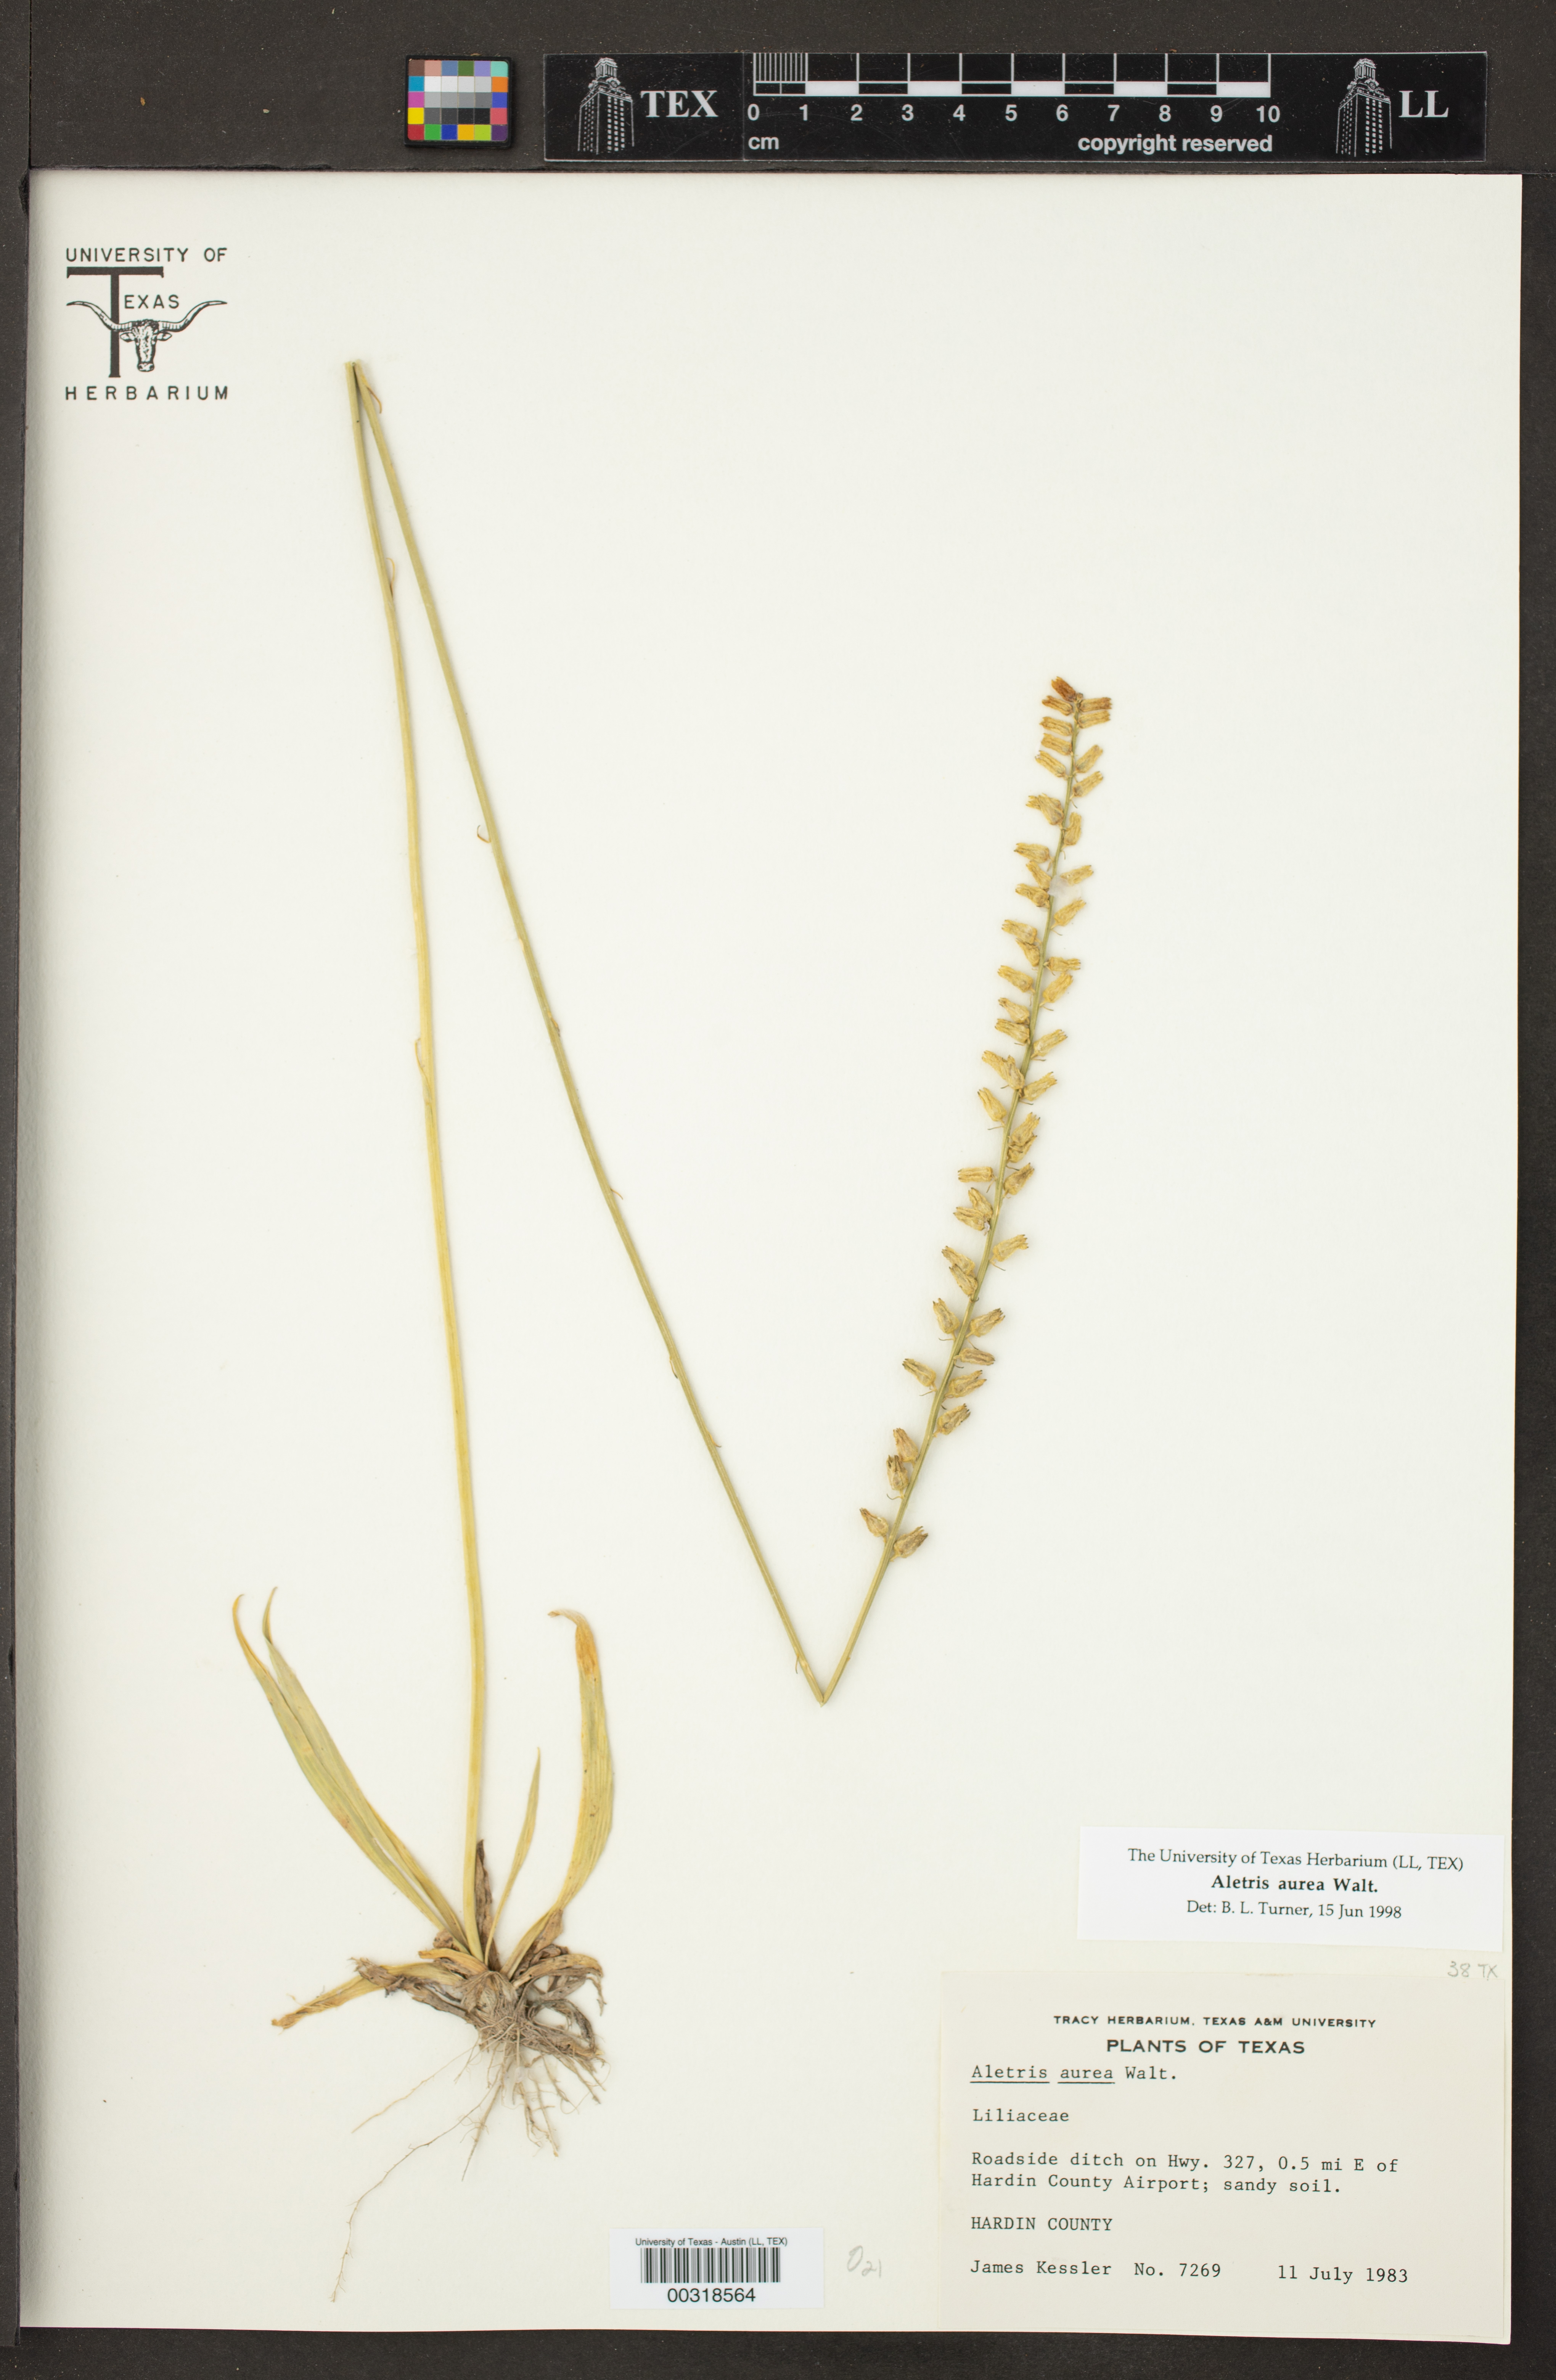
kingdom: Plantae
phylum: Tracheophyta
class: Liliopsida
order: Dioscoreales
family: Nartheciaceae
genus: Aletris
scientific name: Aletris aurea
